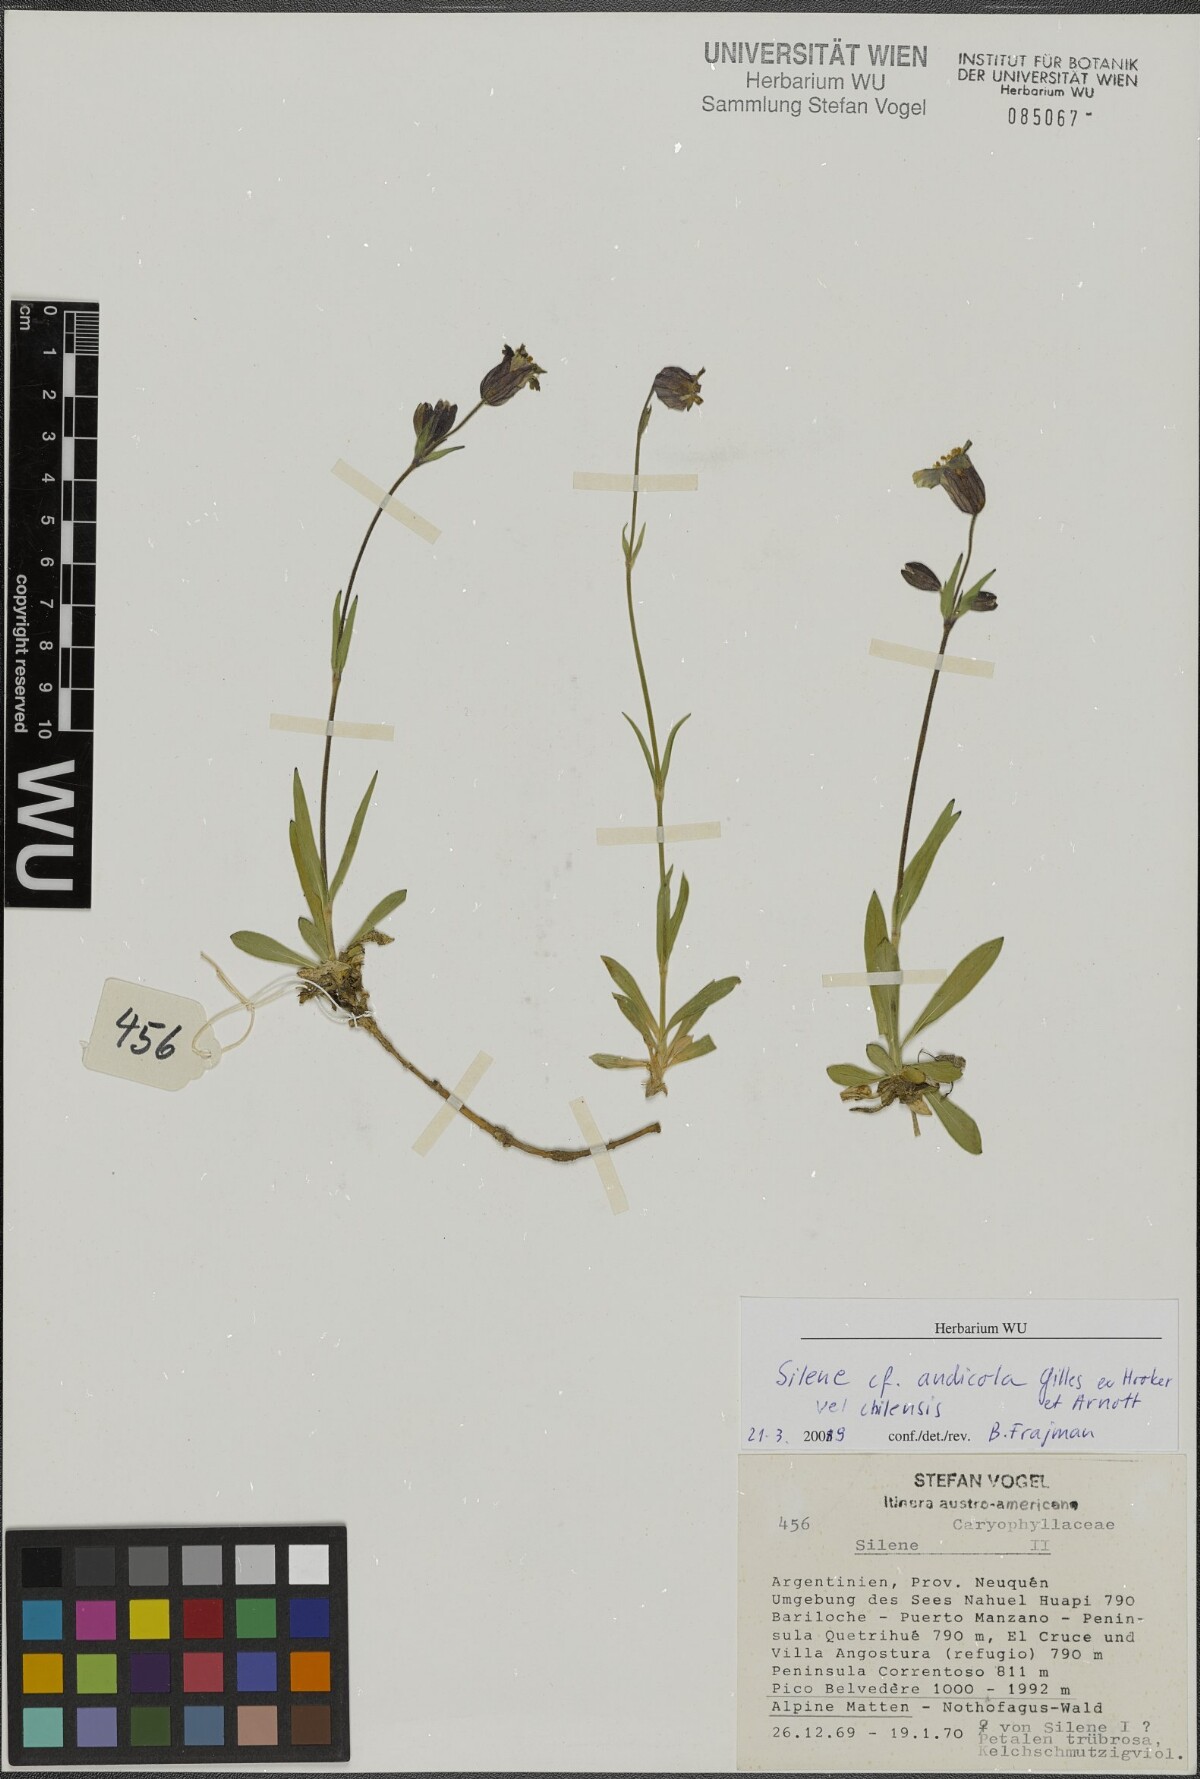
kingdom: Plantae
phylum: Tracheophyta
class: Magnoliopsida
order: Caryophyllales
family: Caryophyllaceae
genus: Silene
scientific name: Silene andicola
